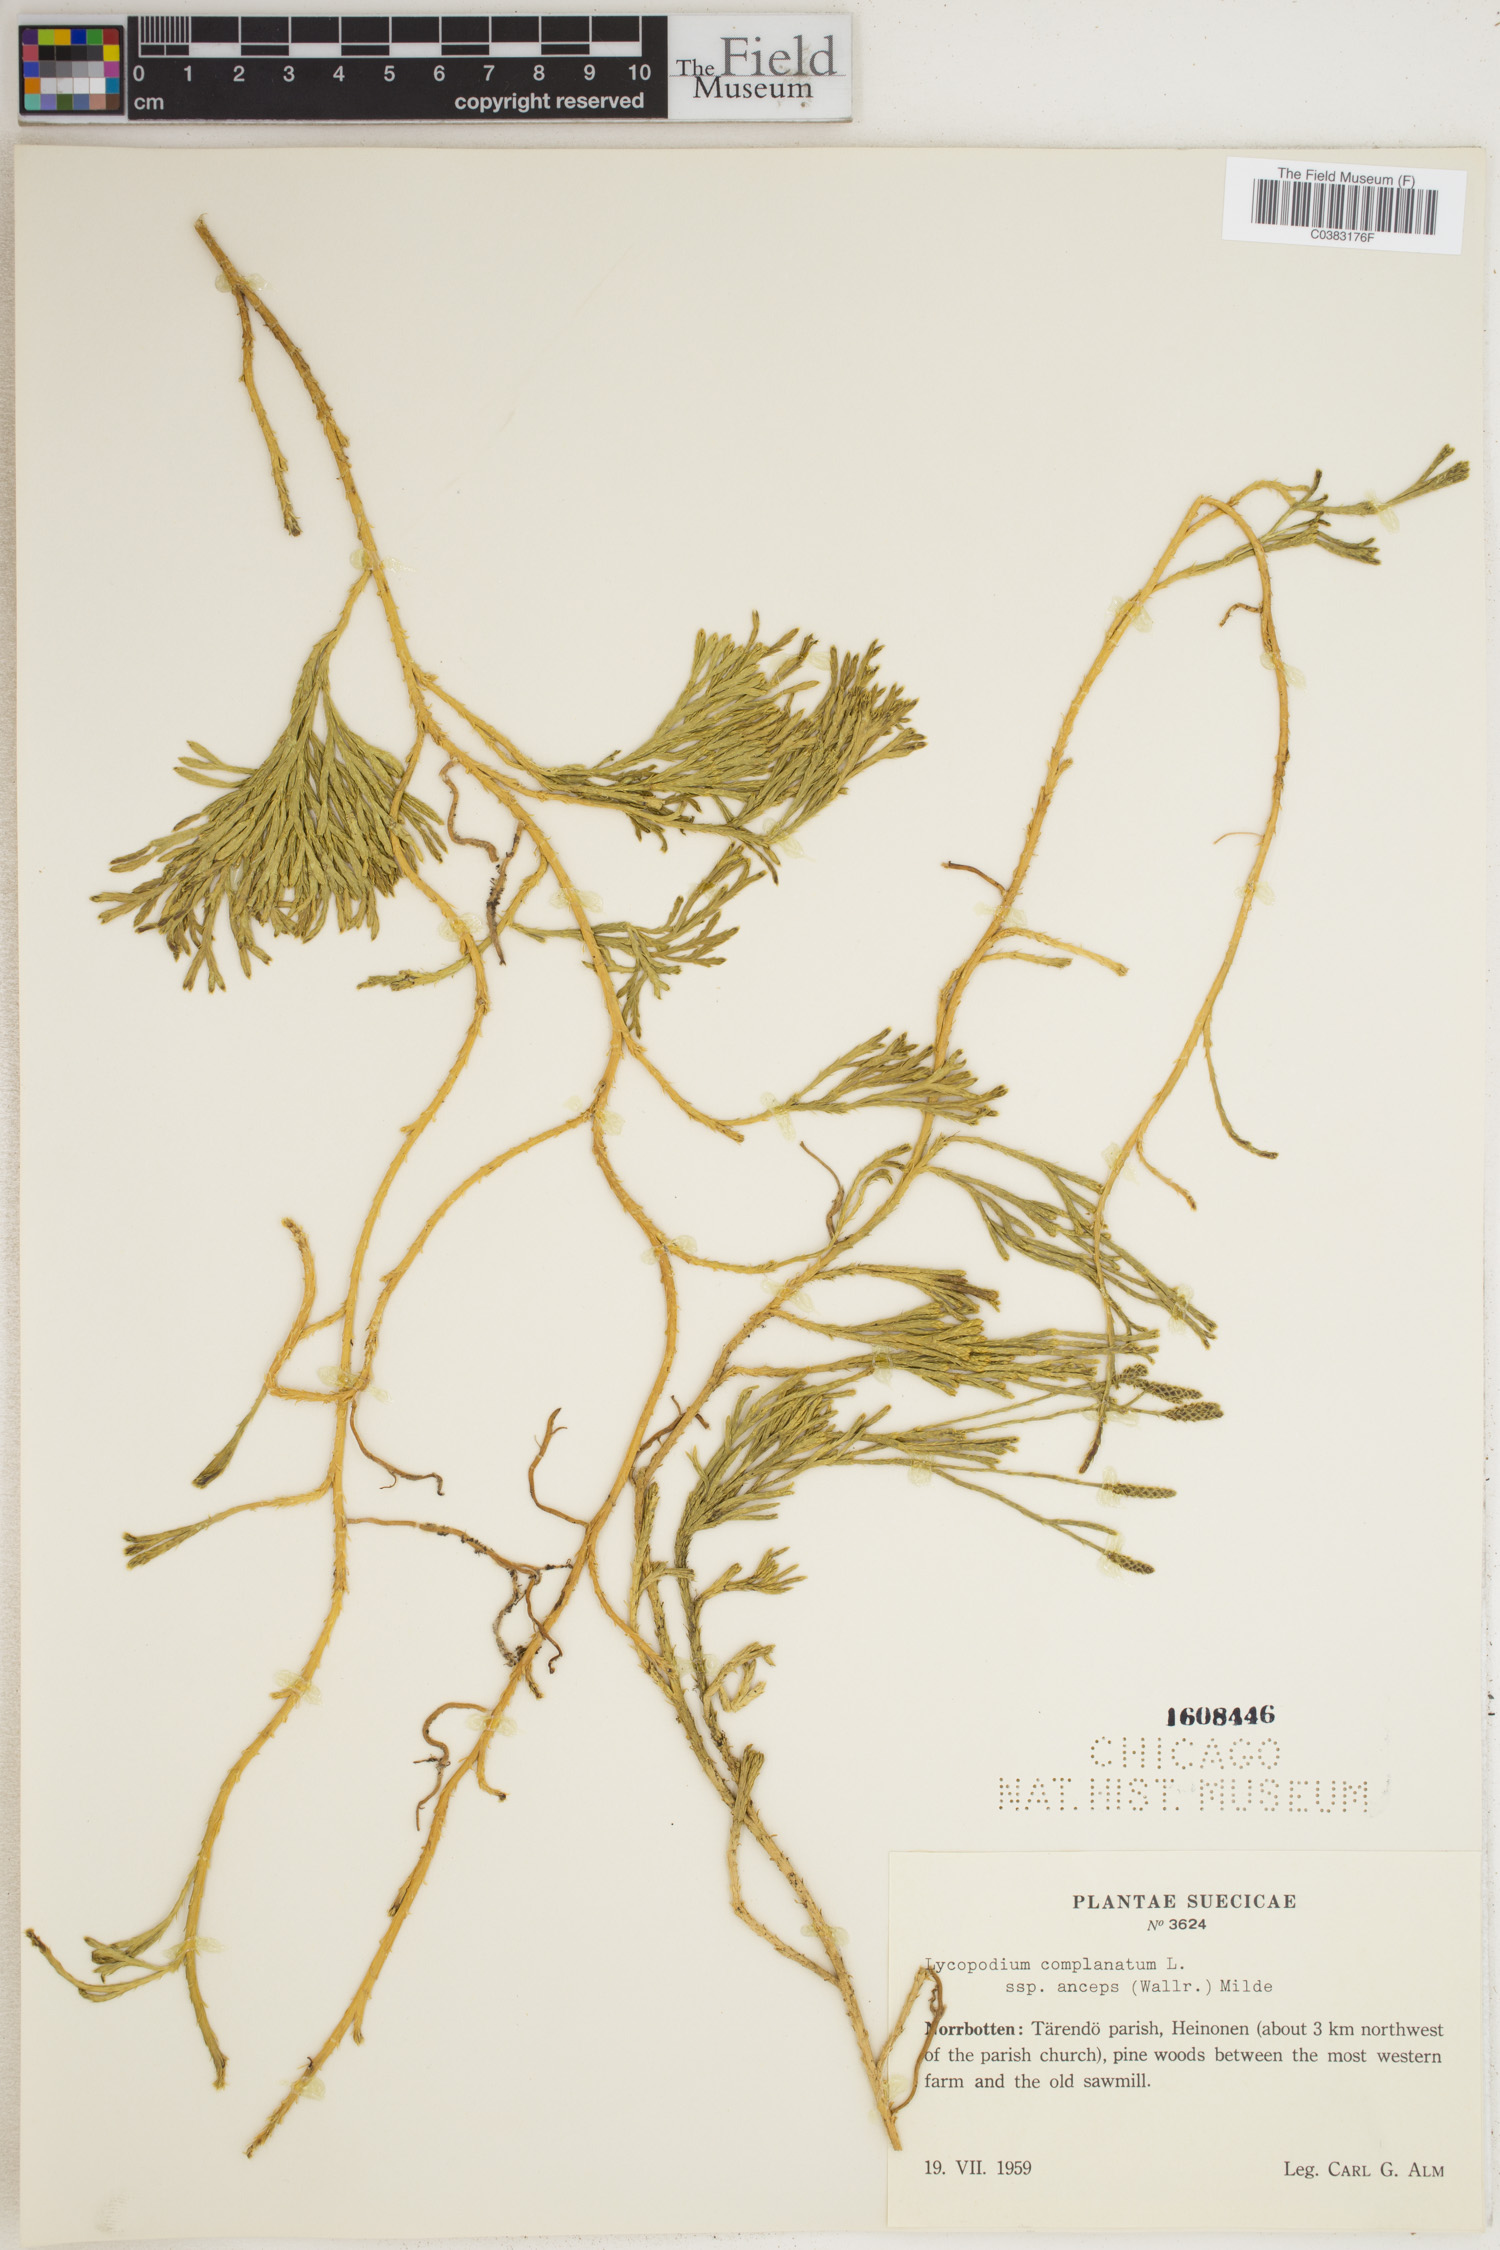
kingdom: Plantae
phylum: Tracheophyta
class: Lycopodiopsida
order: Lycopodiales
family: Lycopodiaceae
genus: Diphasiastrum
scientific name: Diphasiastrum complanatum
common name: Northern running-pine
